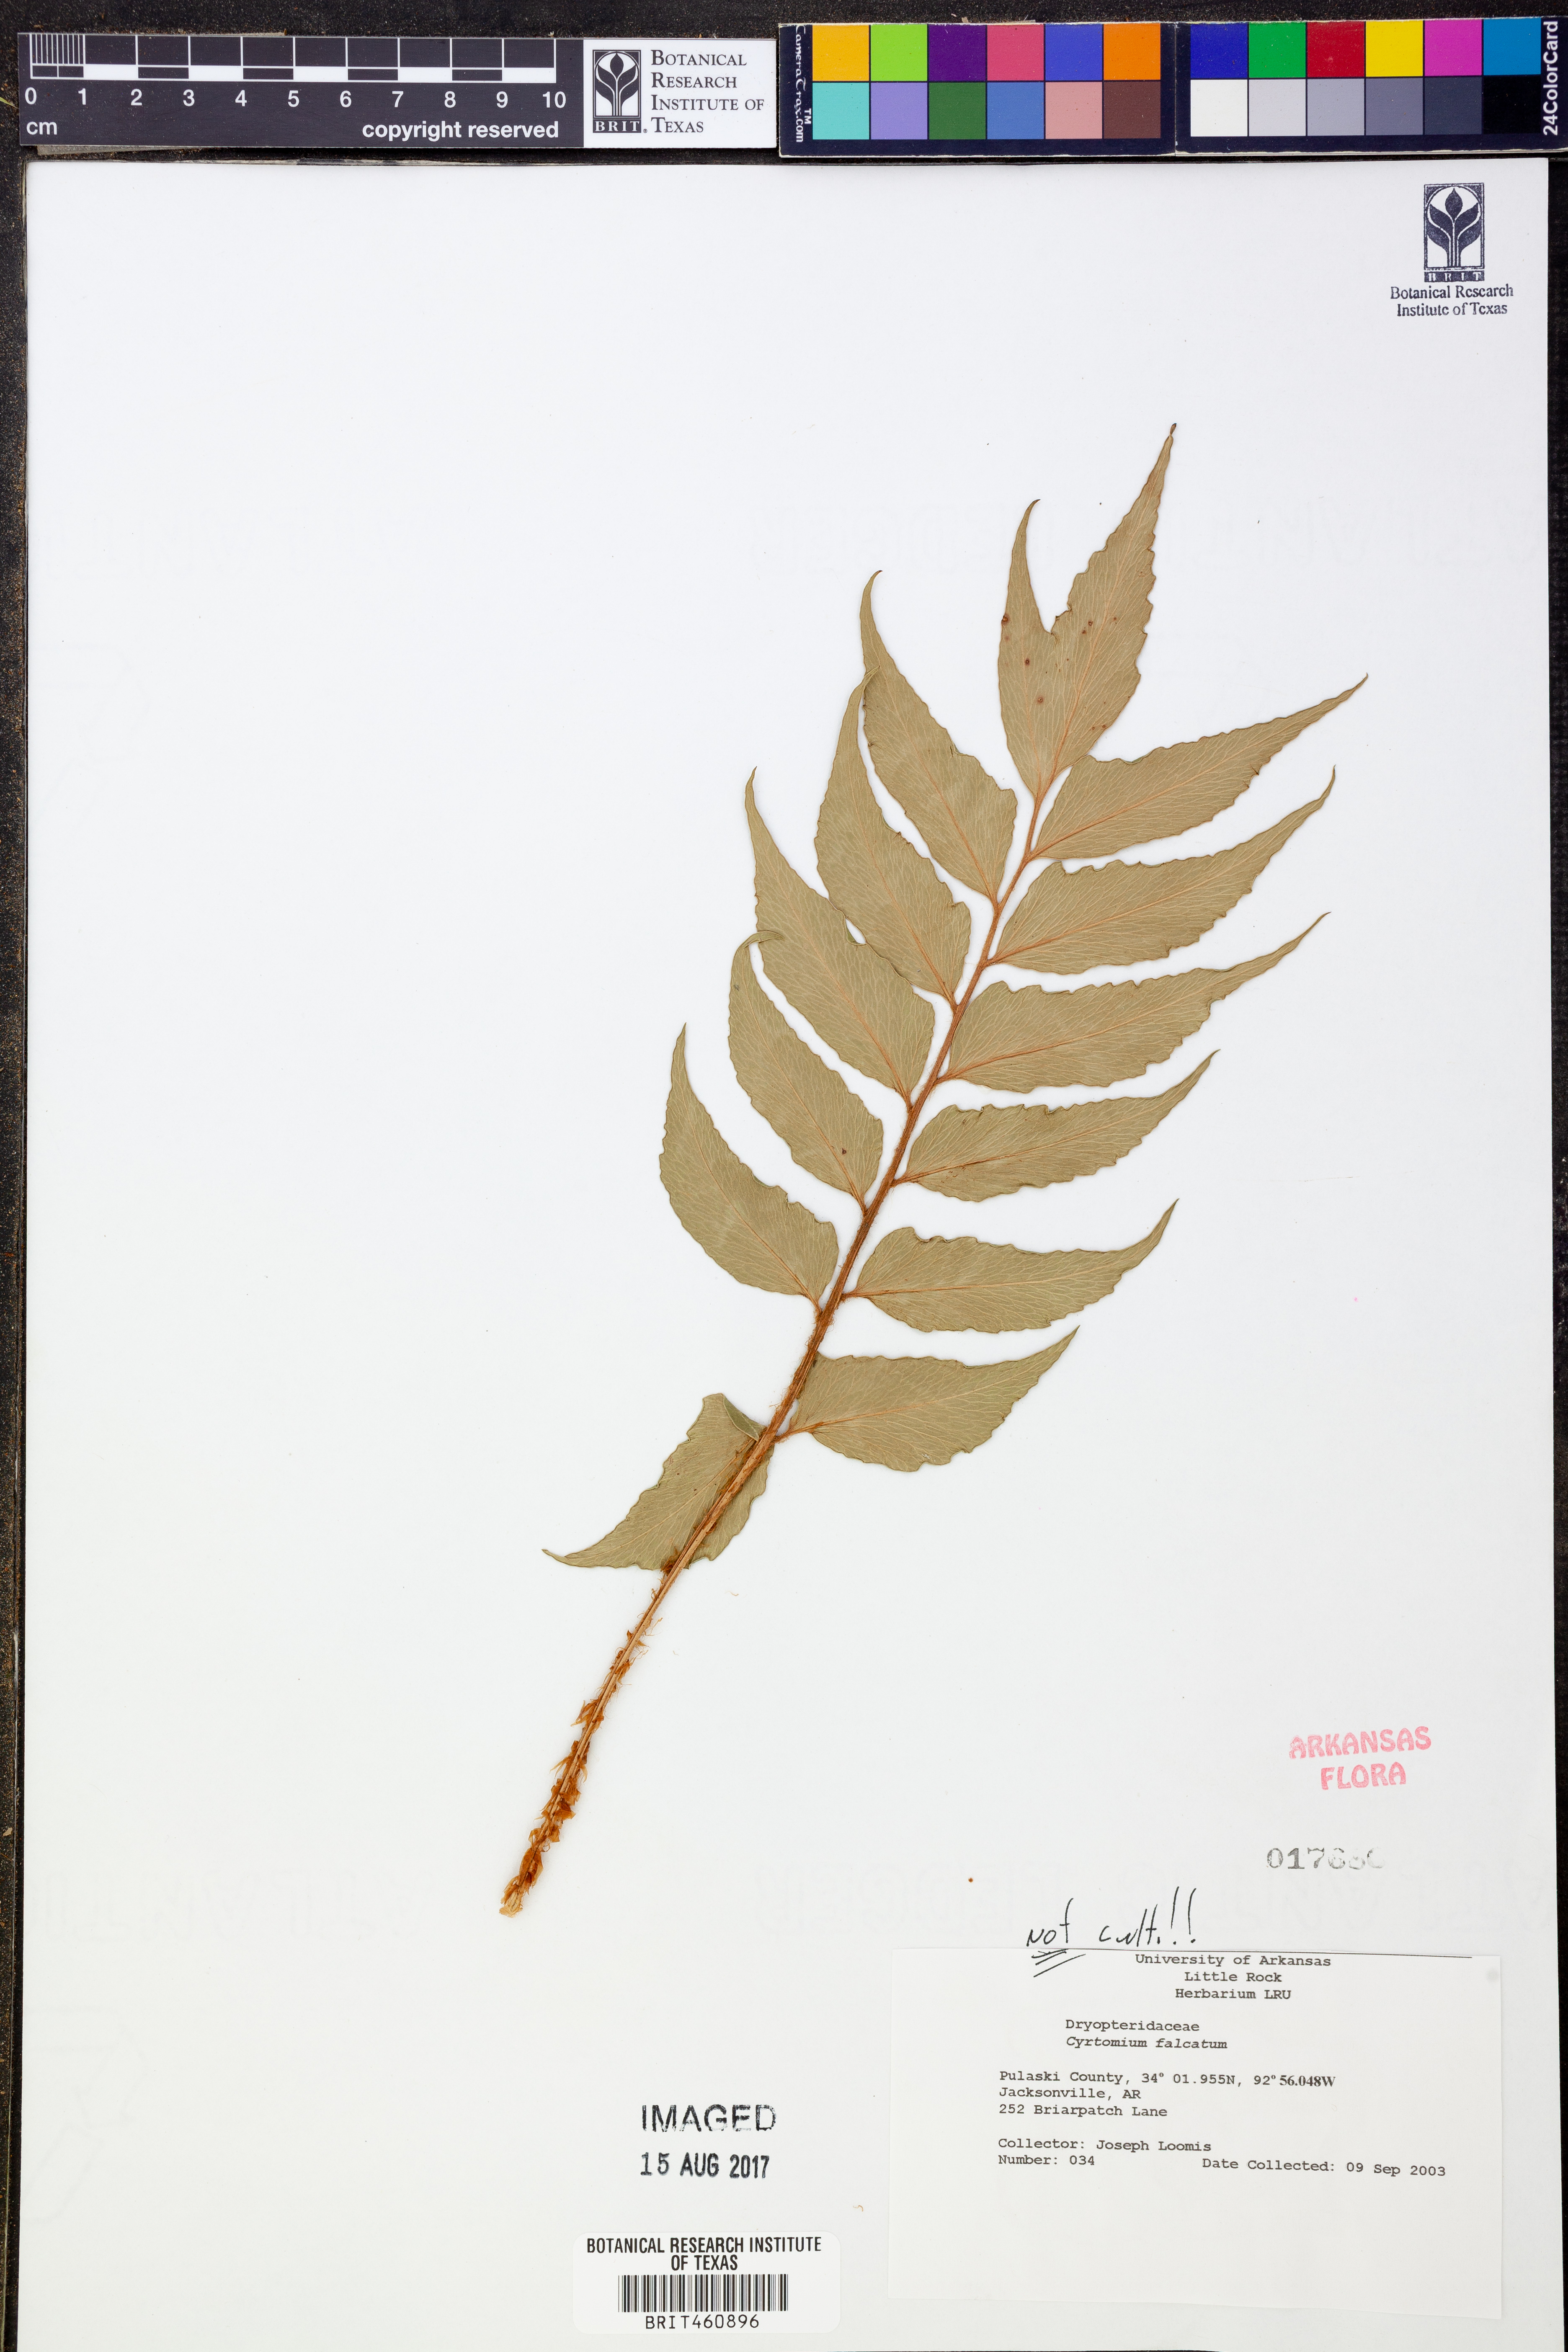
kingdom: Plantae
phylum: Tracheophyta
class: Polypodiopsida
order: Polypodiales
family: Dryopteridaceae
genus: Cyrtomium
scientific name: Cyrtomium falcatum
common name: House holly-fern
